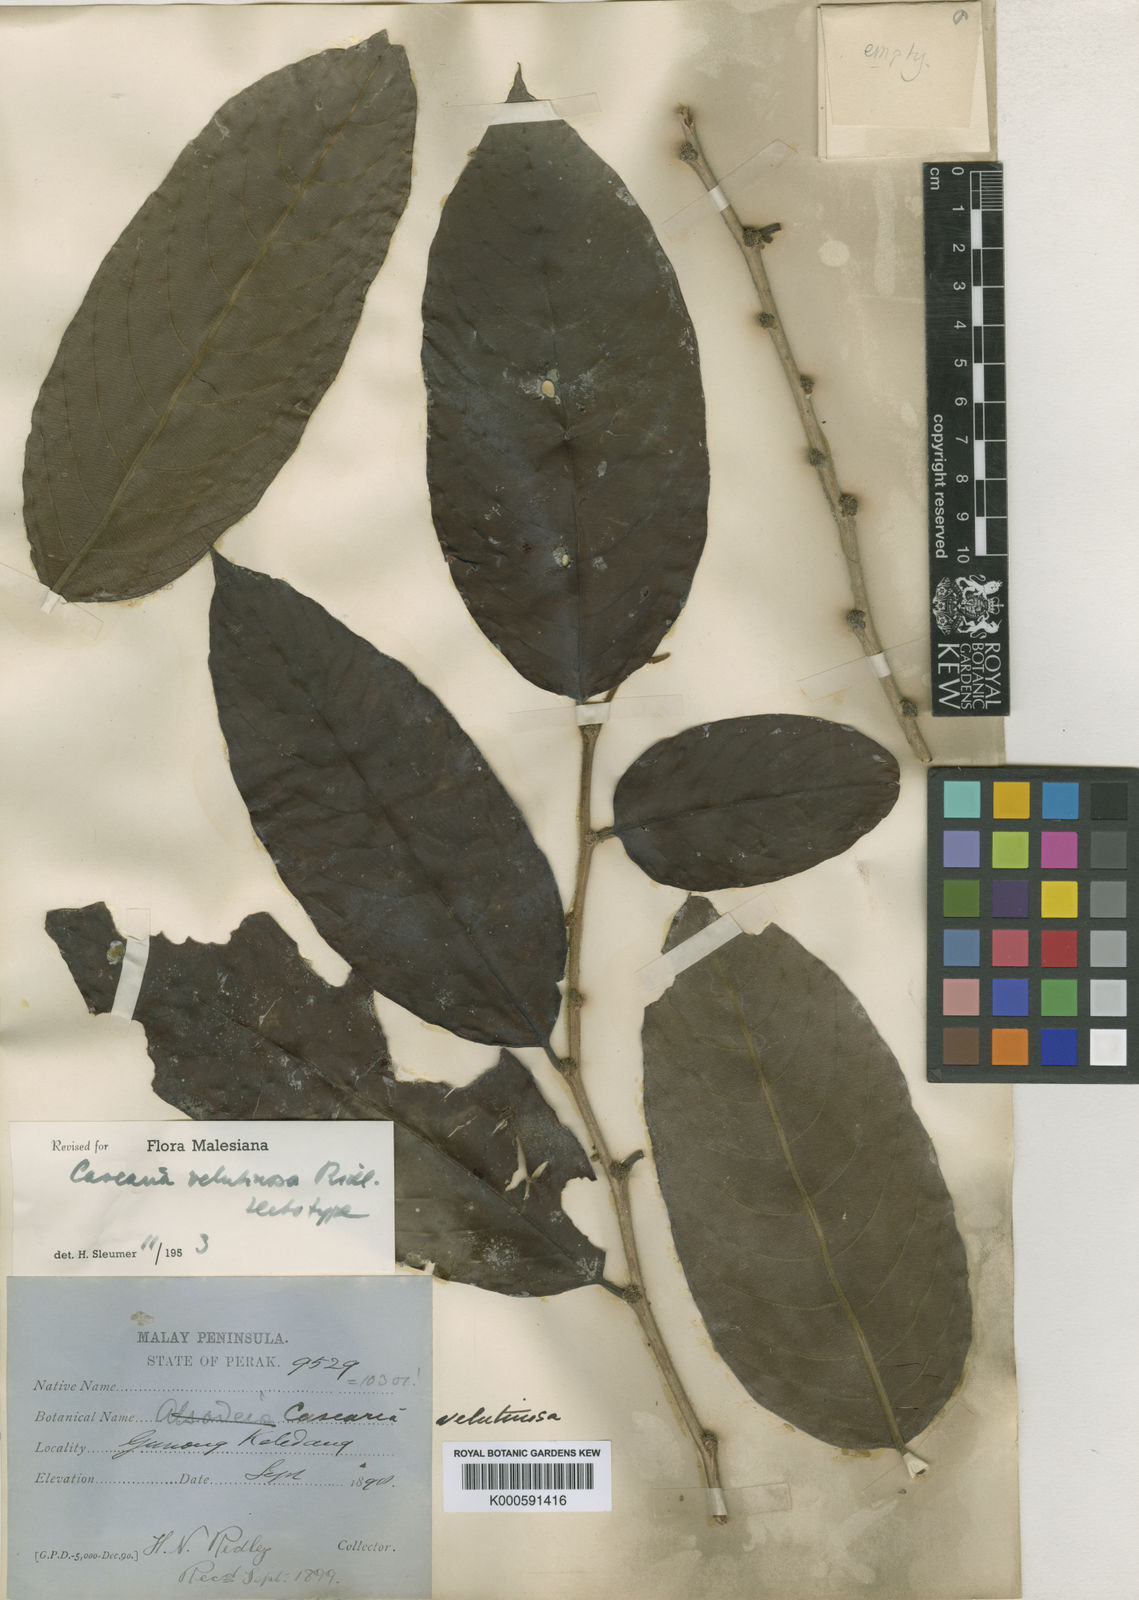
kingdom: Plantae
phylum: Tracheophyta
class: Magnoliopsida
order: Malpighiales
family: Salicaceae
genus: Casearia
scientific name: Casearia velutinosa
